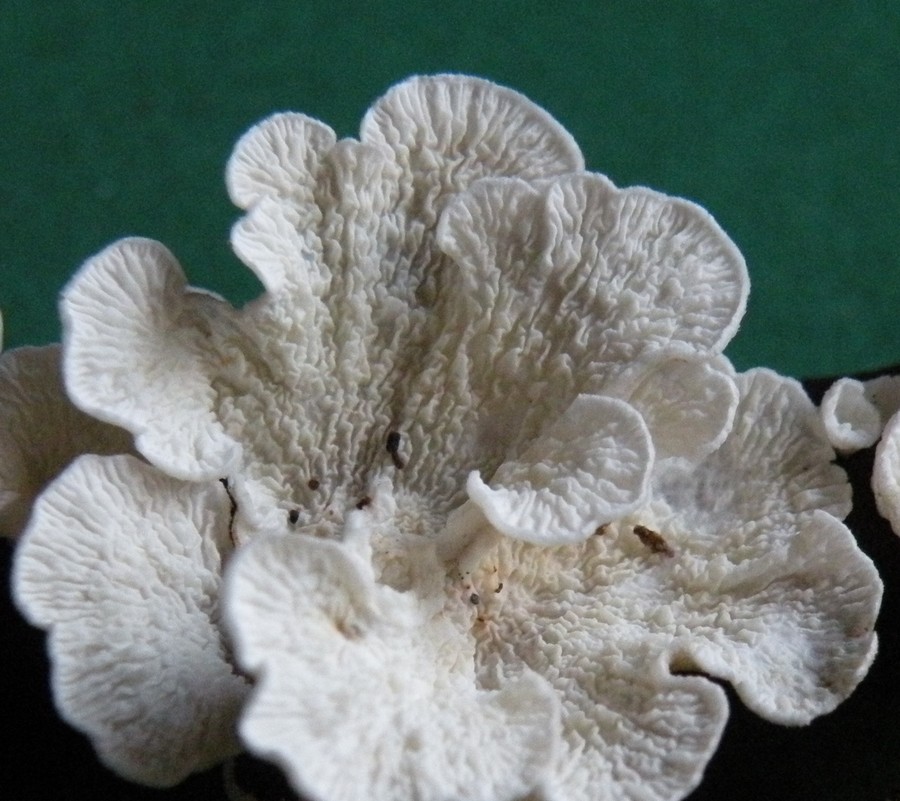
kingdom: Fungi
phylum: Basidiomycota
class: Agaricomycetes
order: Amylocorticiales
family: Amylocorticiaceae
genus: Plicaturopsis
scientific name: Plicaturopsis crispa
